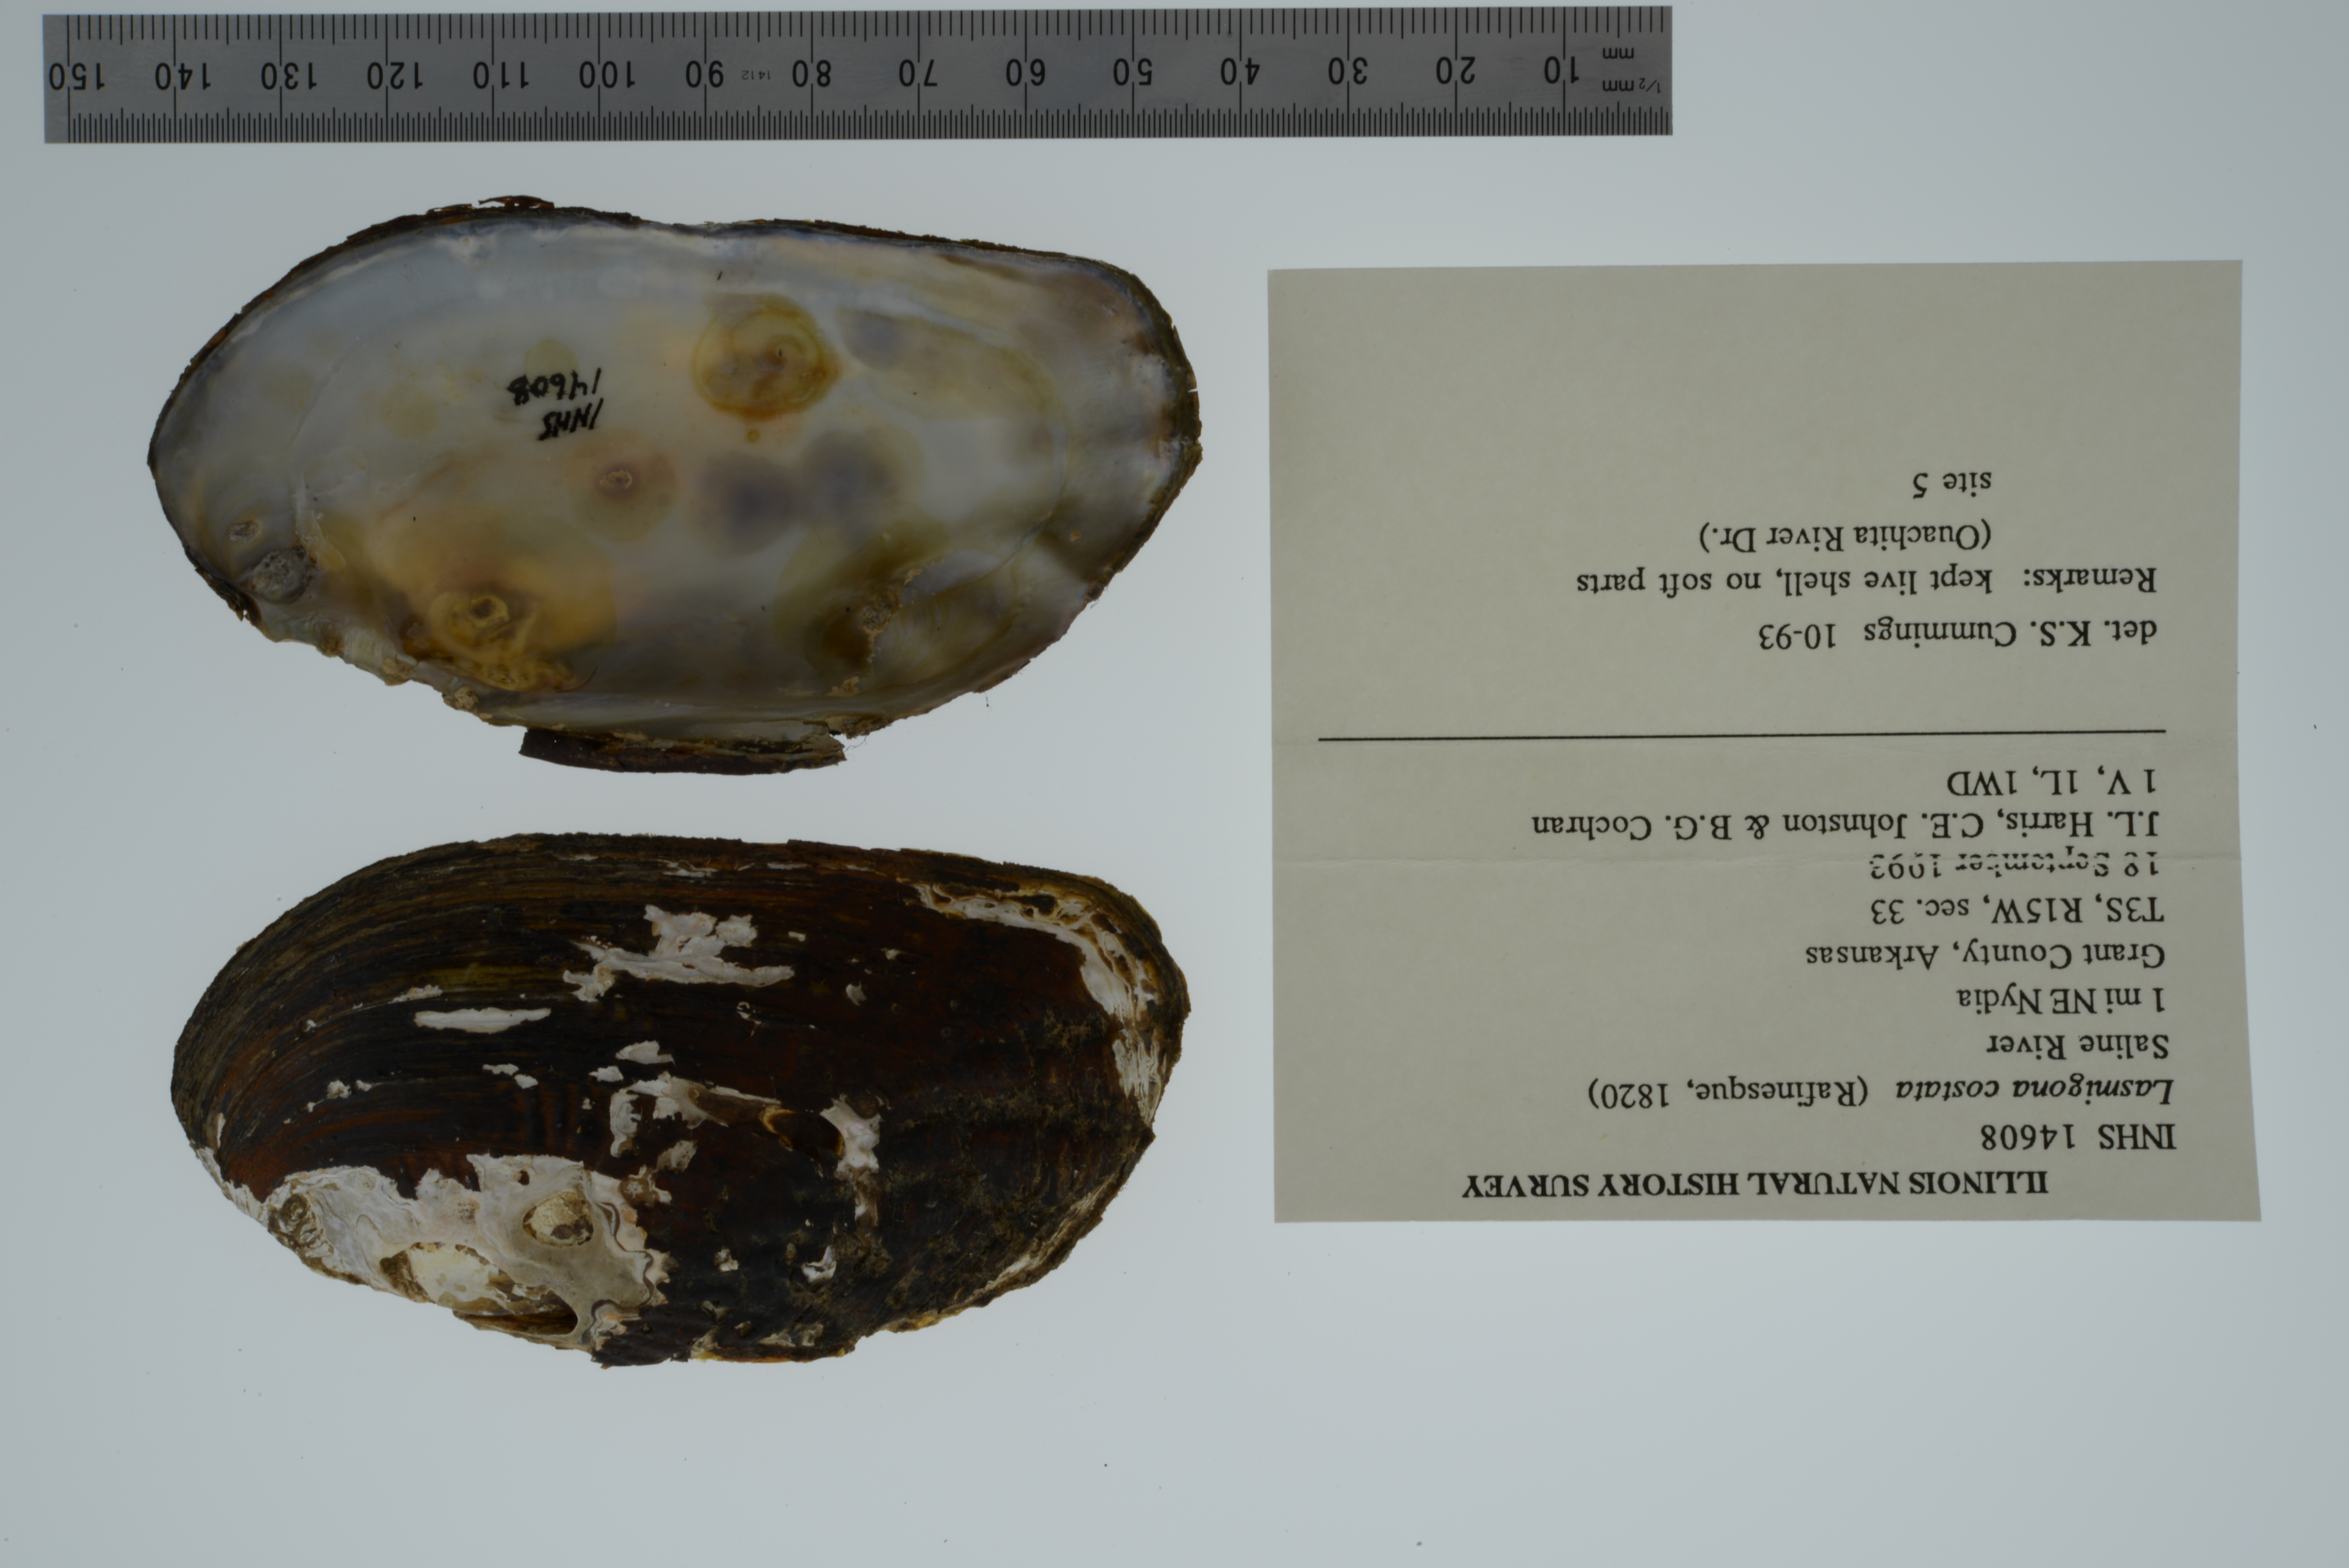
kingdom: Animalia
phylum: Mollusca
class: Bivalvia
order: Unionida
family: Unionidae
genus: Lasmigona
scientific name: Lasmigona costata
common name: Flutedshell
